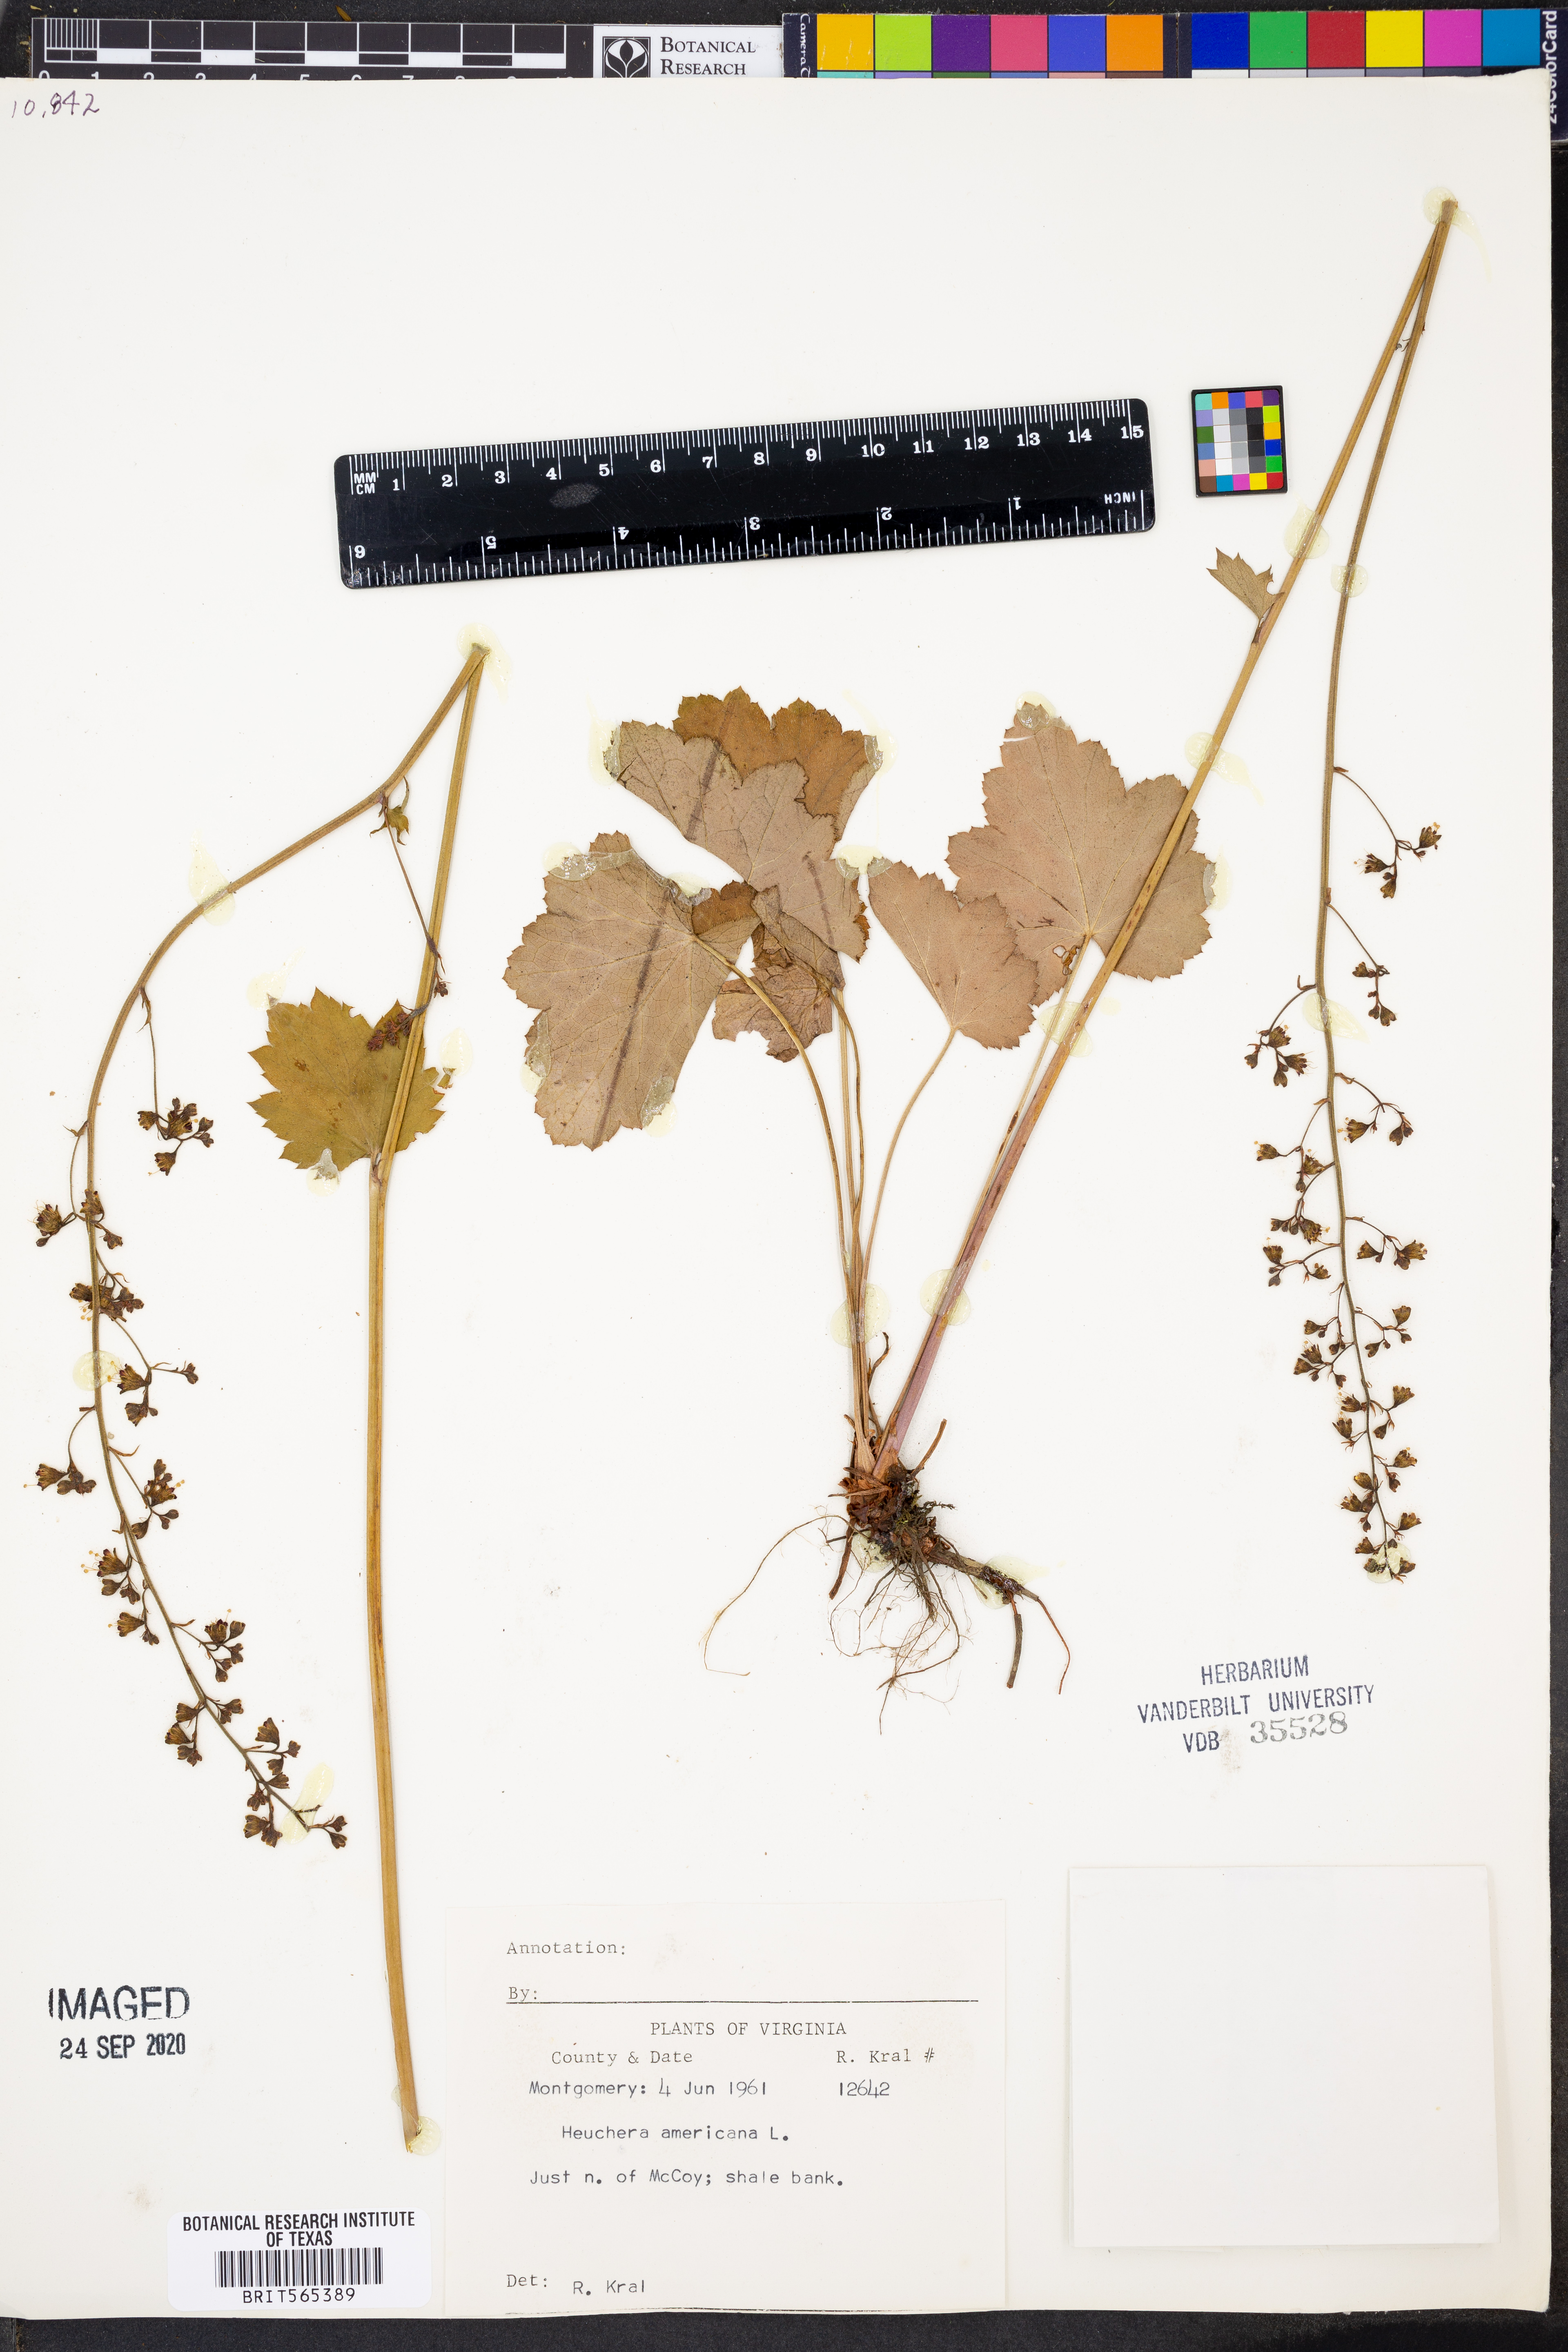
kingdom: Plantae
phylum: Tracheophyta
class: Magnoliopsida
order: Saxifragales
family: Saxifragaceae
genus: Heuchera
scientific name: Heuchera americana
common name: Alumroot
